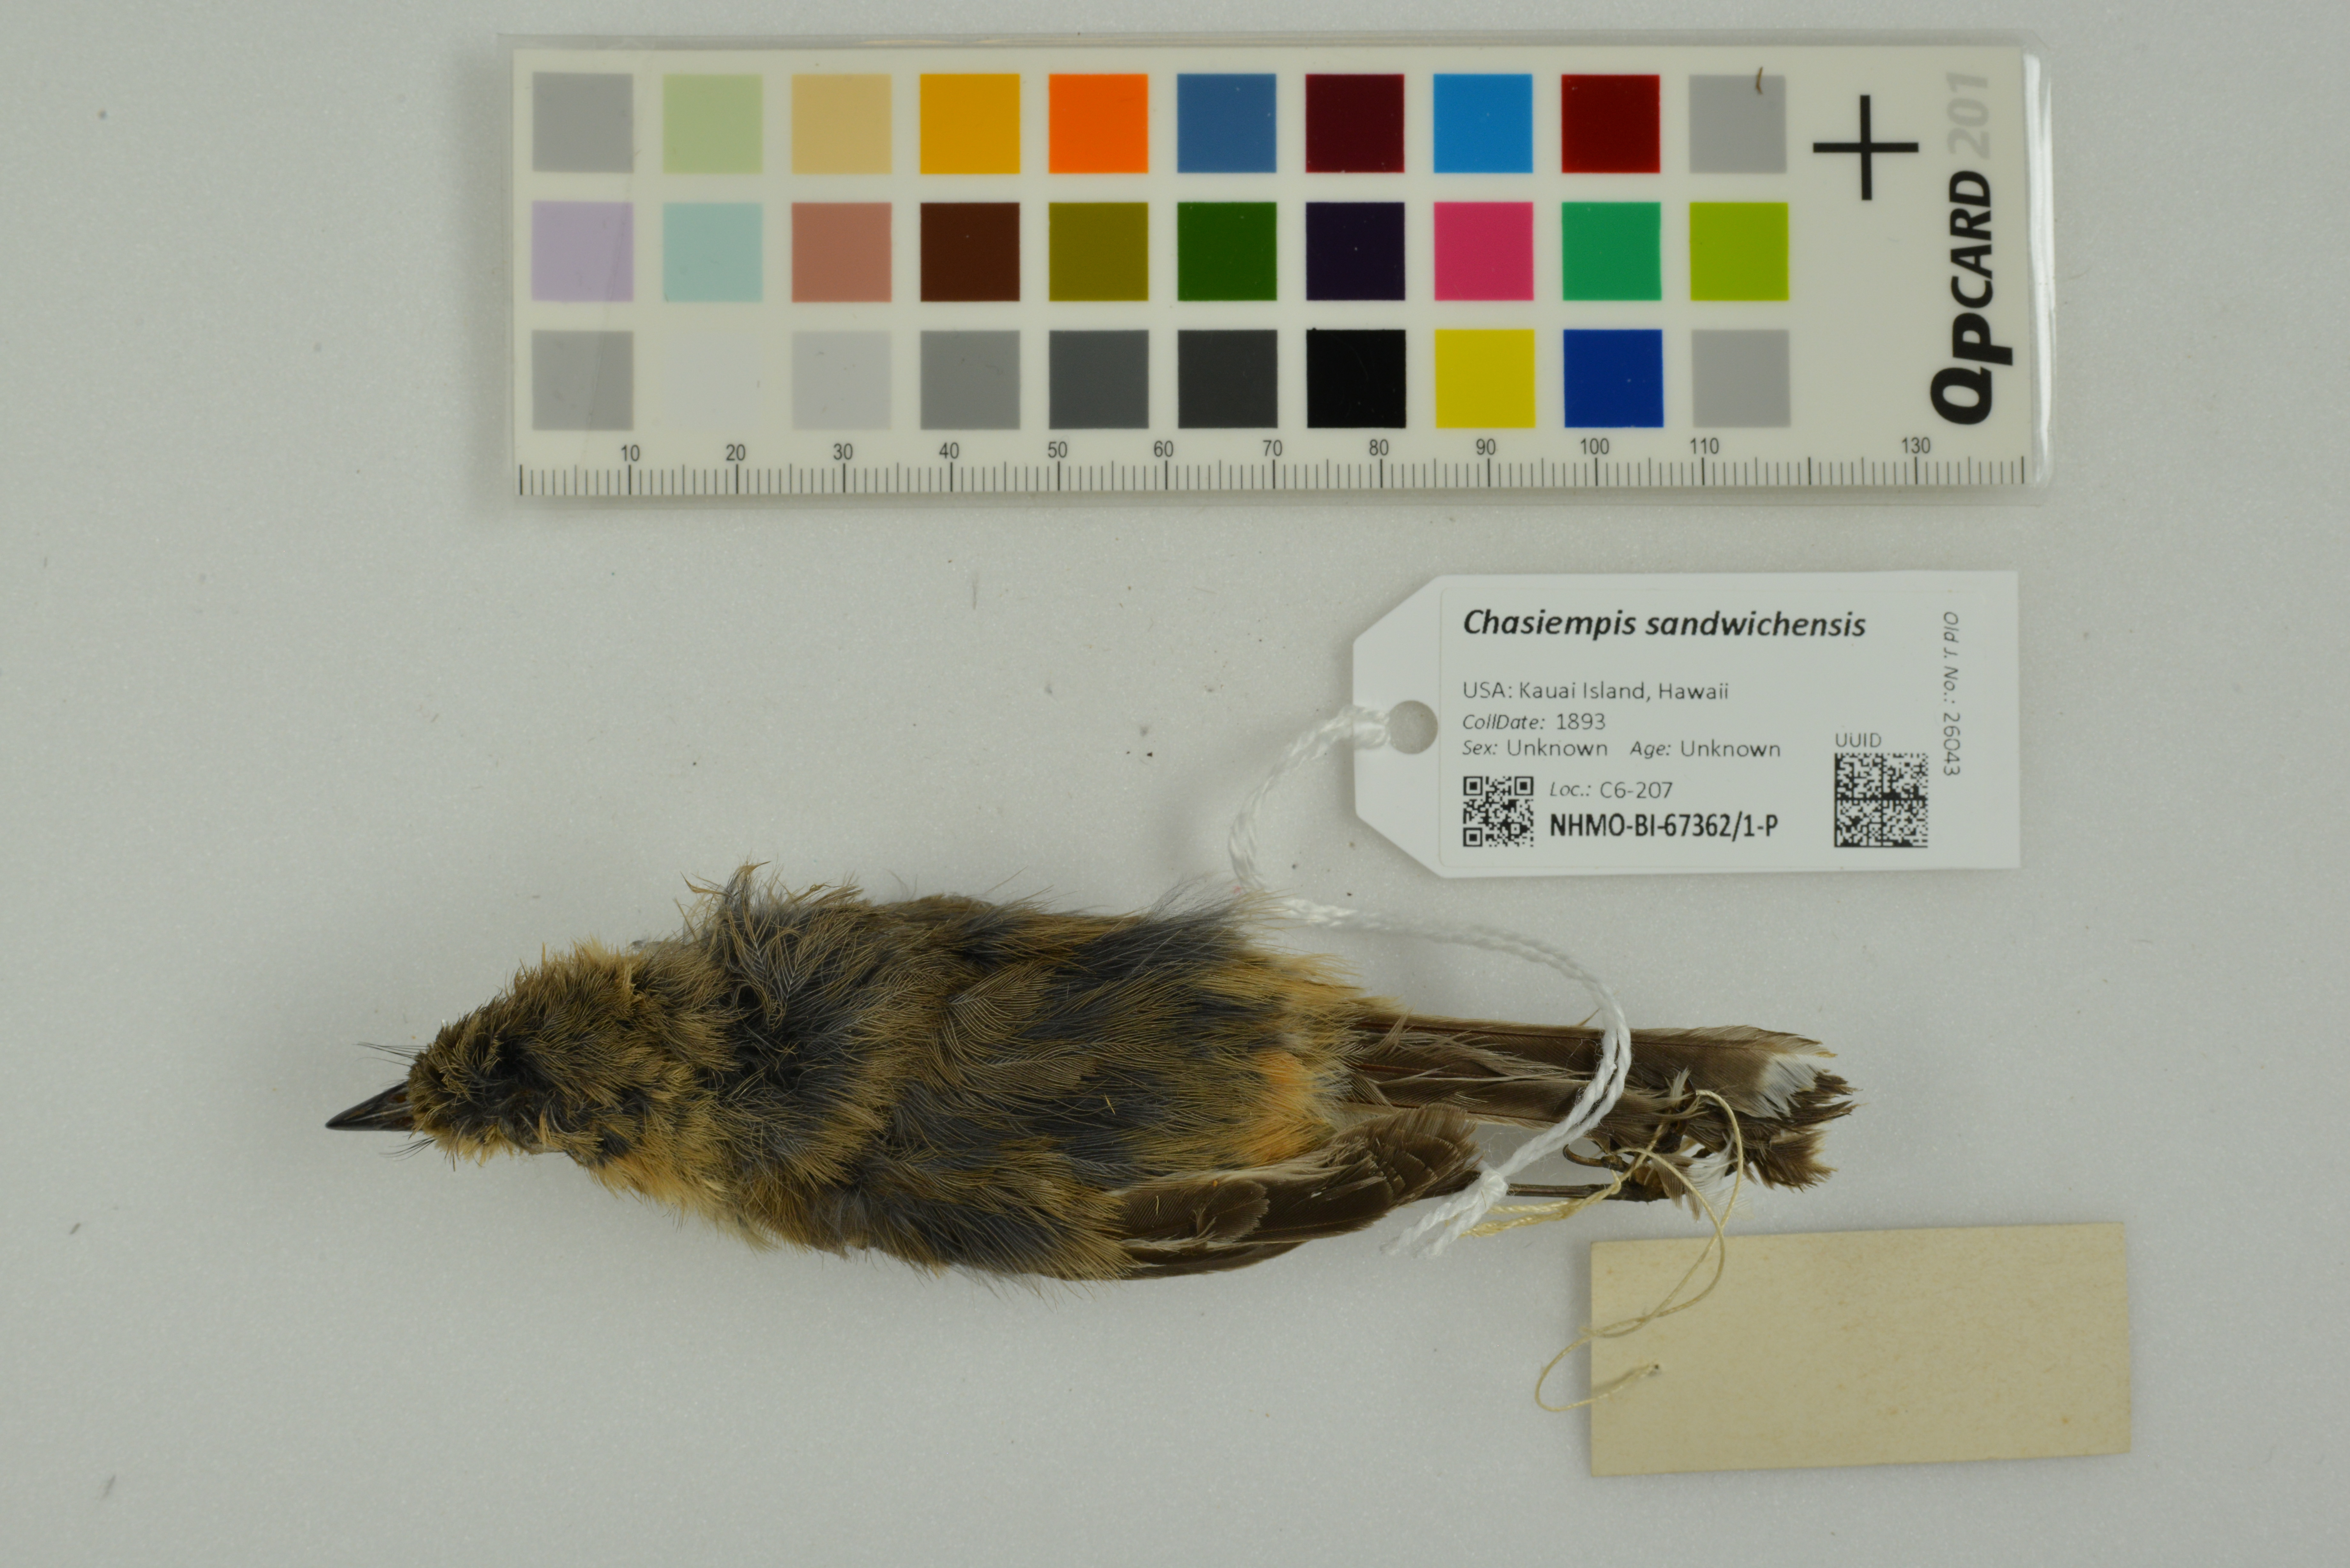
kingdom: Animalia
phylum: Chordata
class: Aves
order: Passeriformes
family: Monarchidae
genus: Chasiempis
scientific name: Chasiempis sandwichensis
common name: Hawaii elepaio
